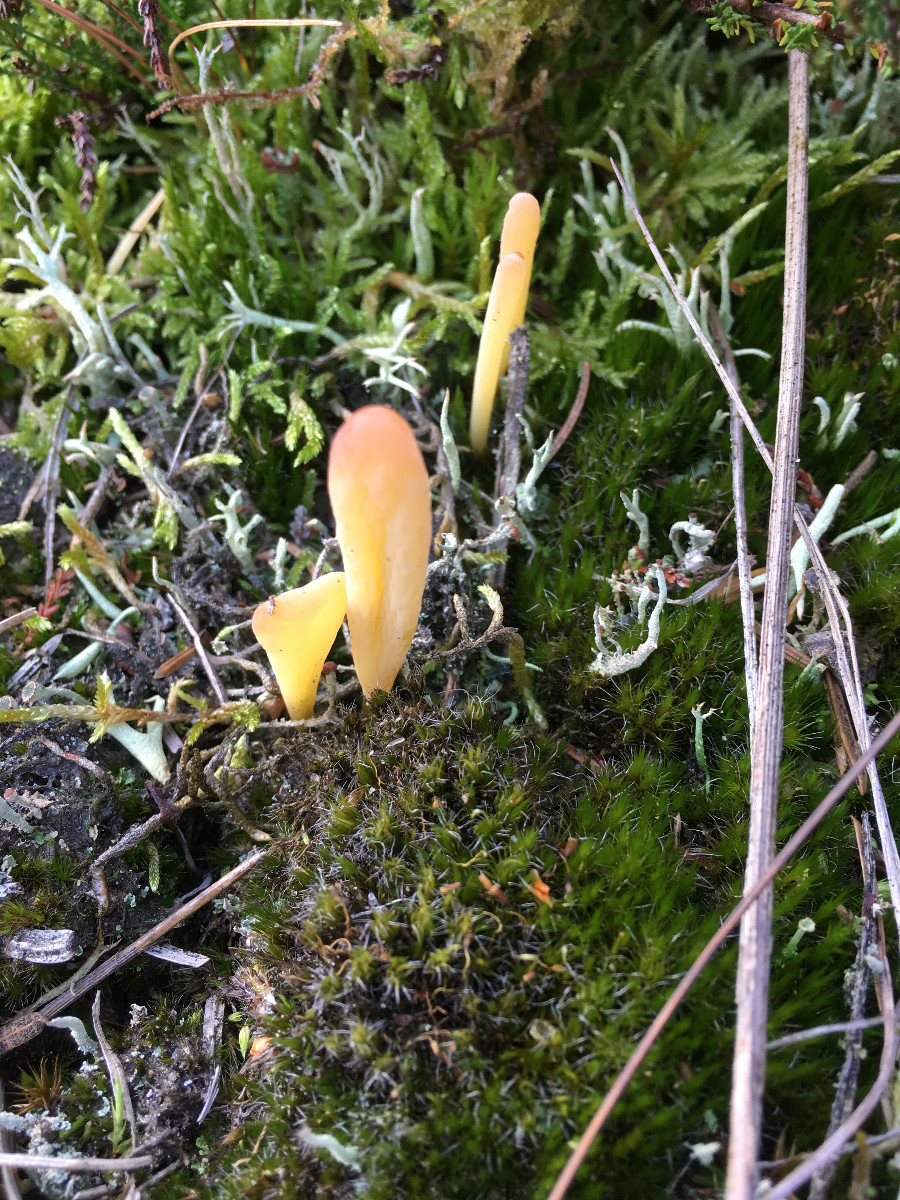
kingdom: Fungi
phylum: Basidiomycota
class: Agaricomycetes
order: Agaricales
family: Clavariaceae
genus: Clavaria
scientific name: Clavaria argillacea
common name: lerfarvet køllesvamp
